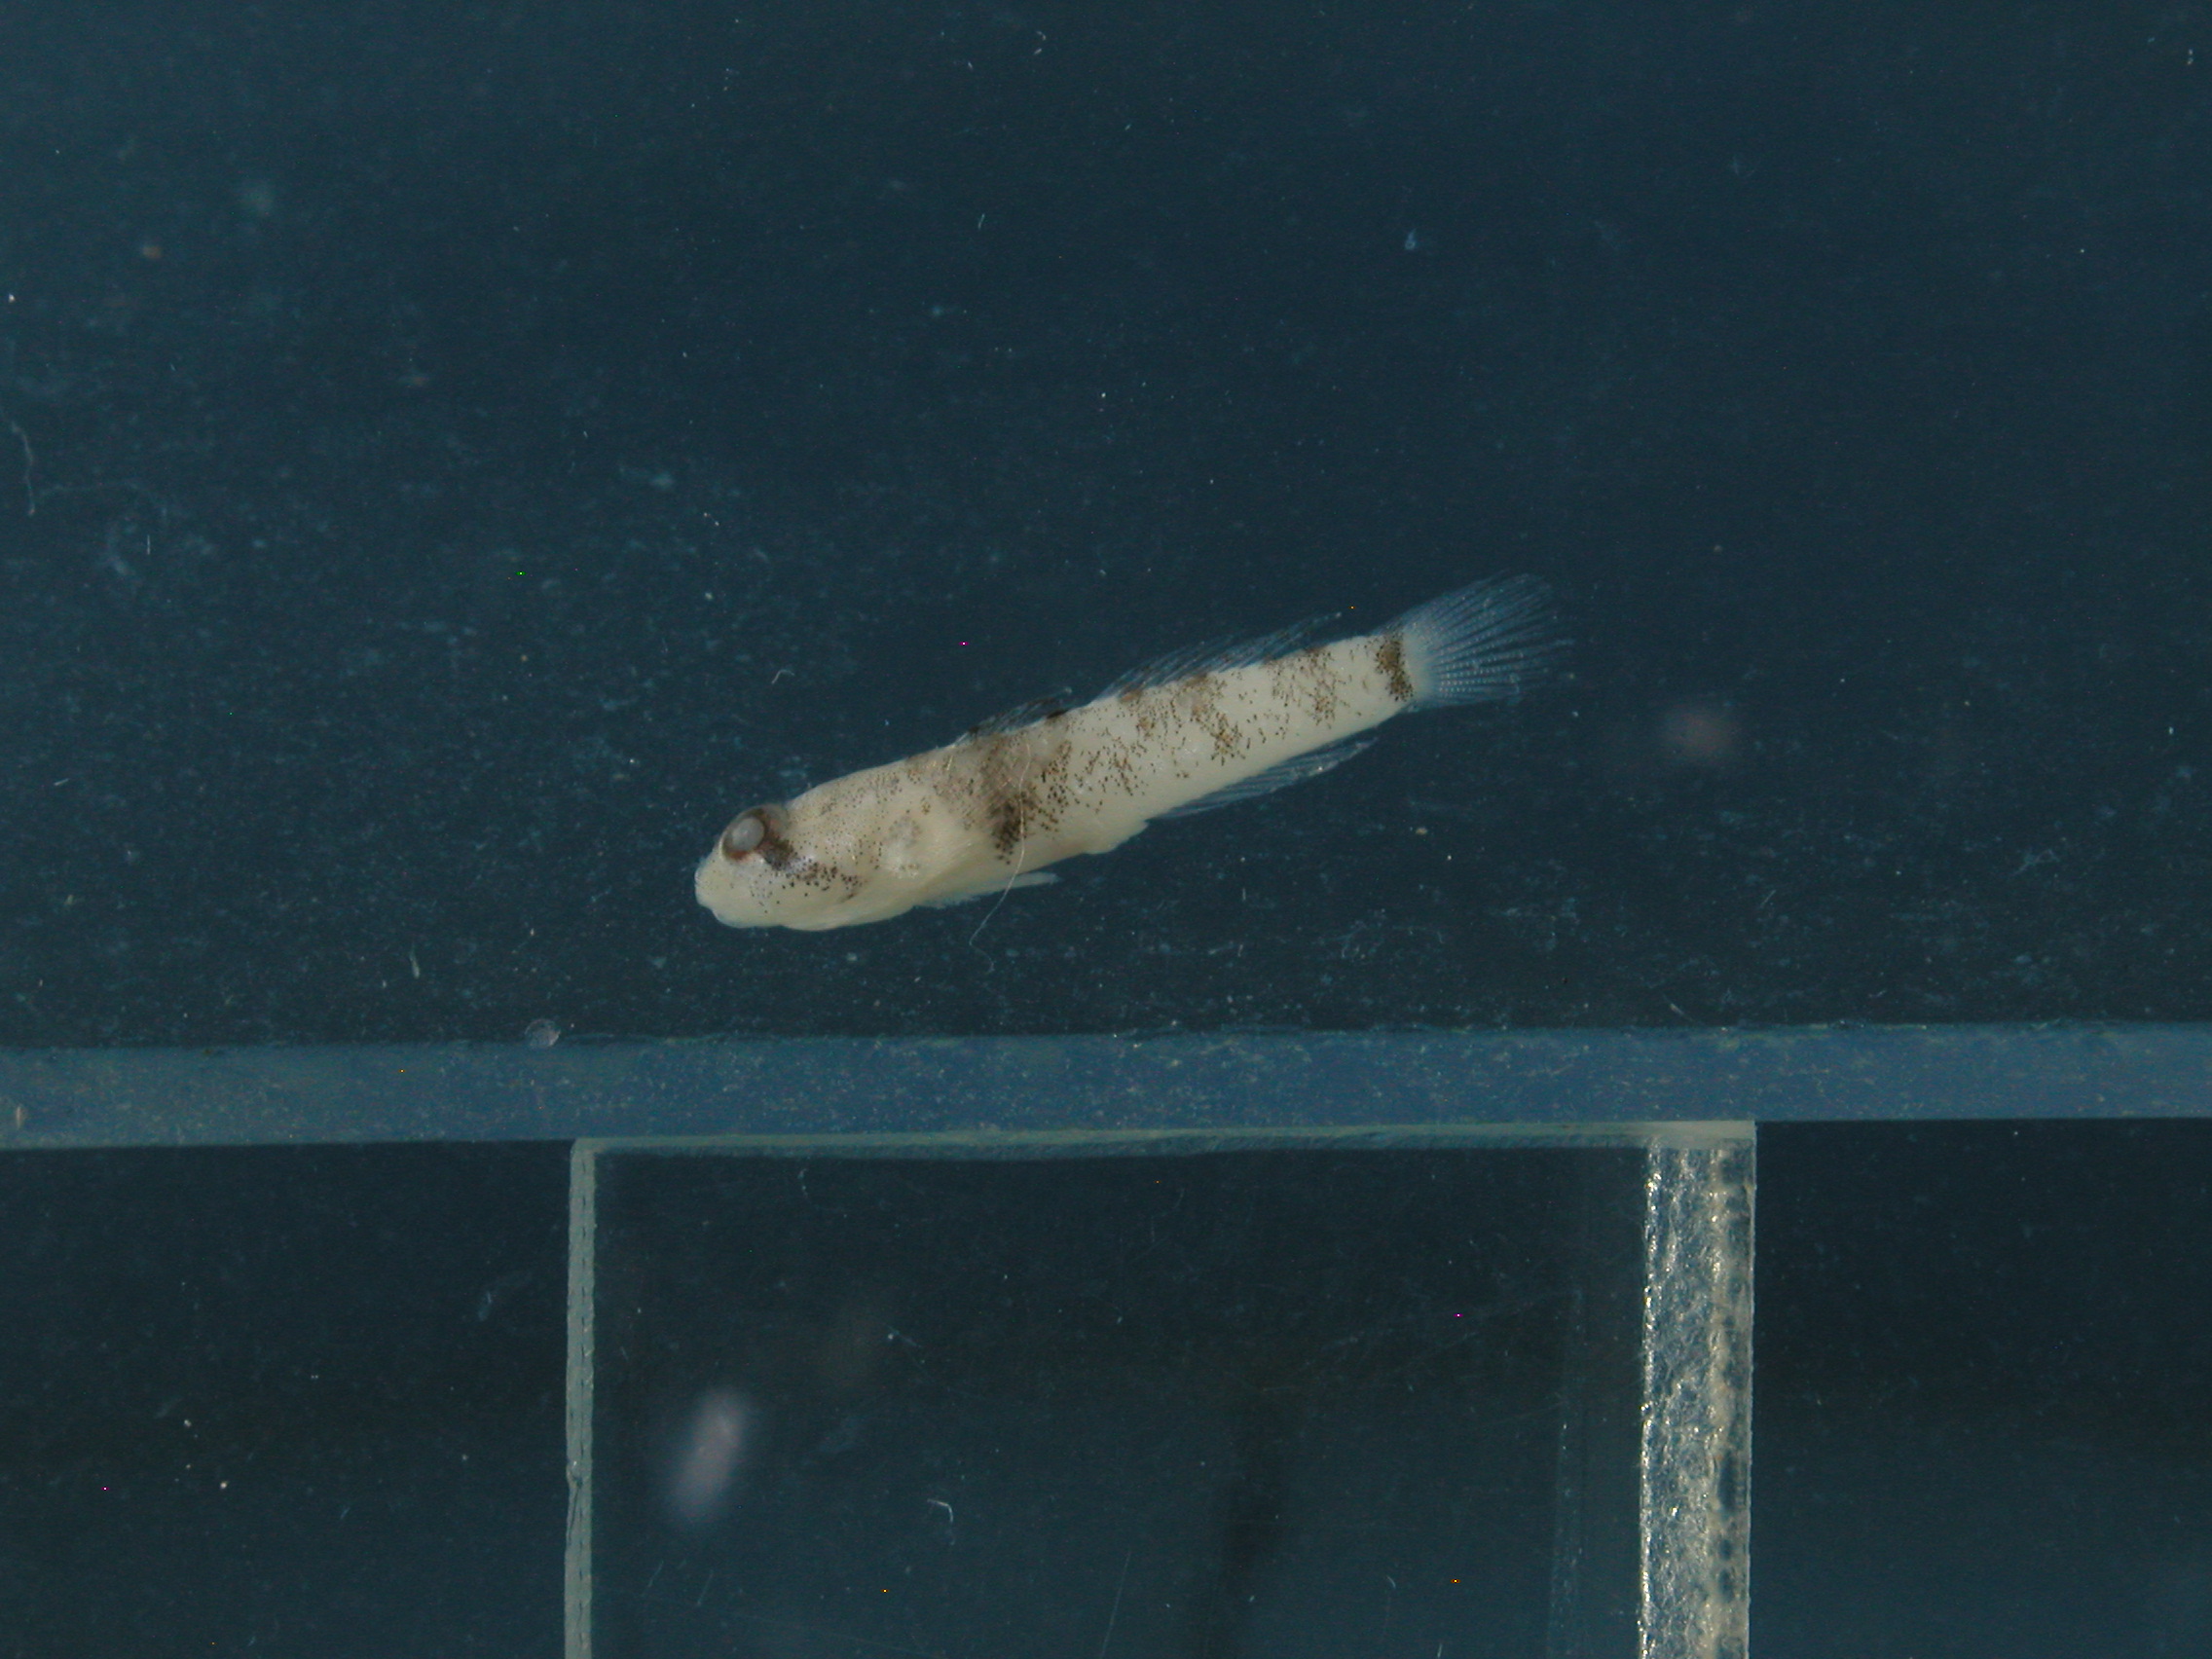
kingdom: Animalia
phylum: Chordata
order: Perciformes
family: Gobiidae
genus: Hetereleotris
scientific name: Hetereleotris zanzibarensis
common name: Goggle goby
